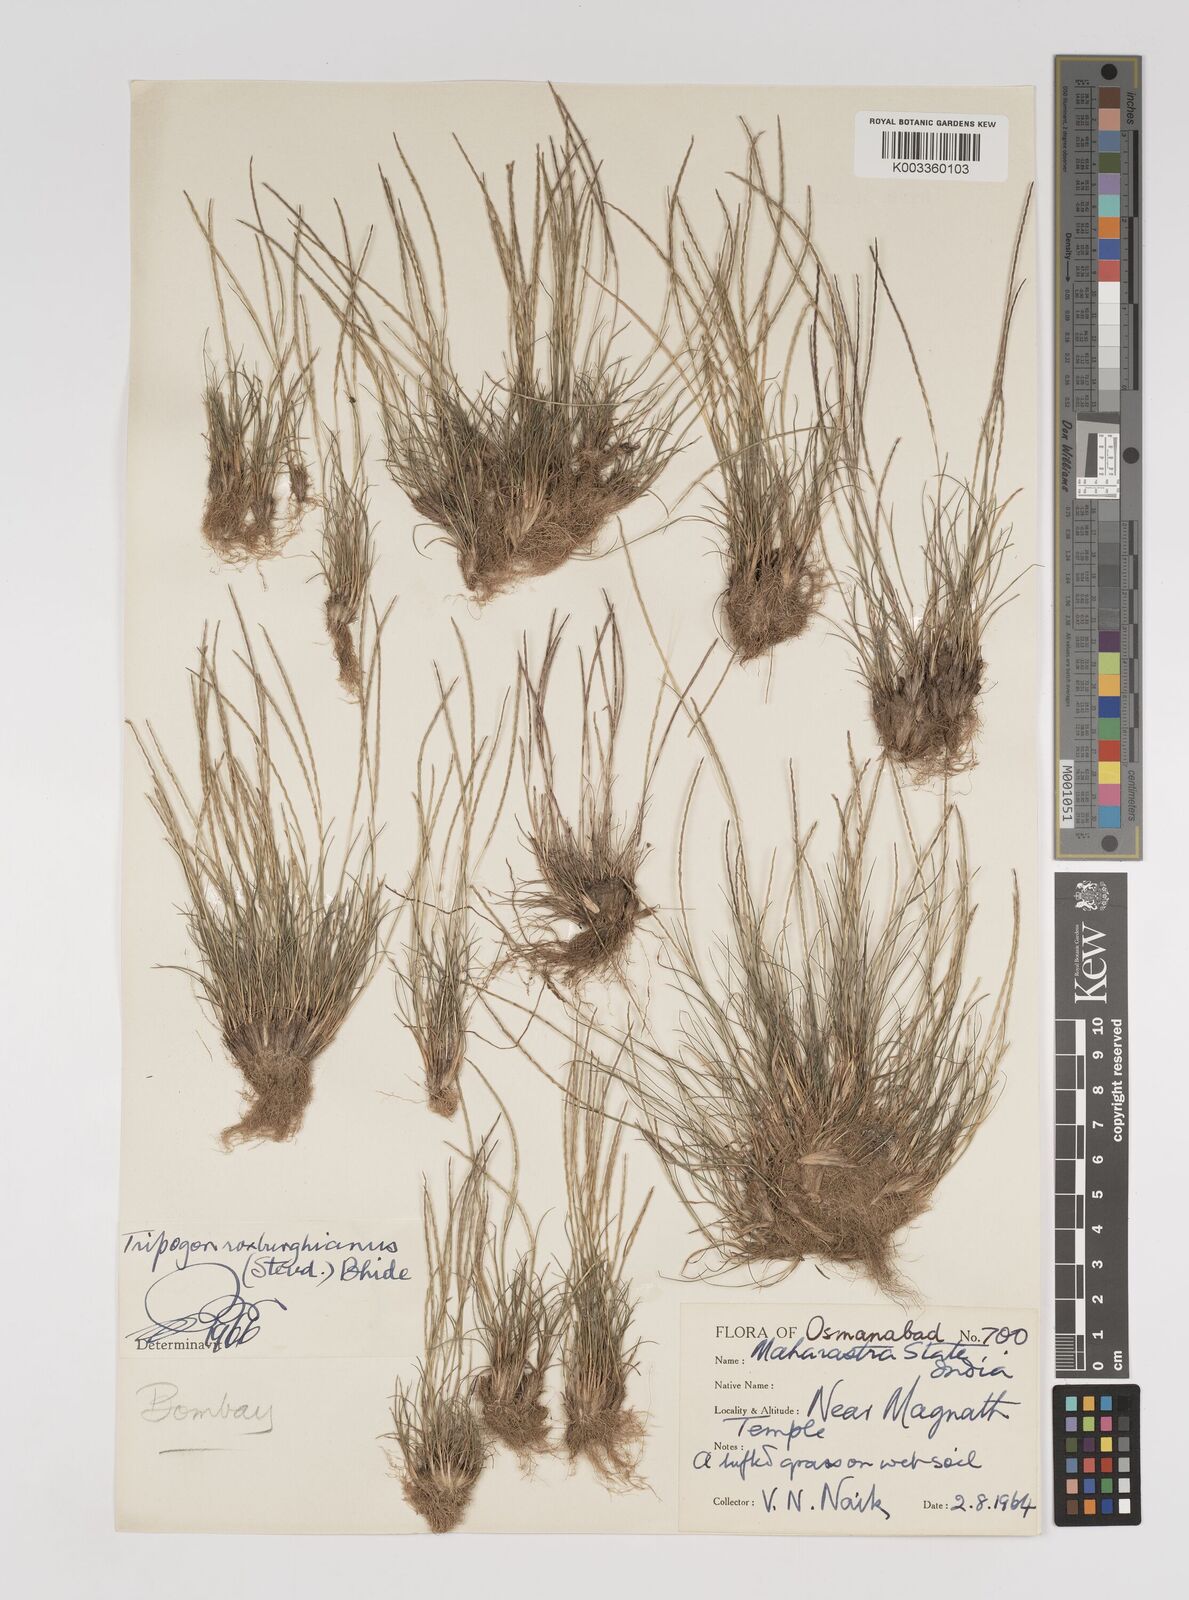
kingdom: Plantae
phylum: Tracheophyta
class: Liliopsida
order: Poales
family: Poaceae
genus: Oropetium
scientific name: Oropetium roxburghianum
